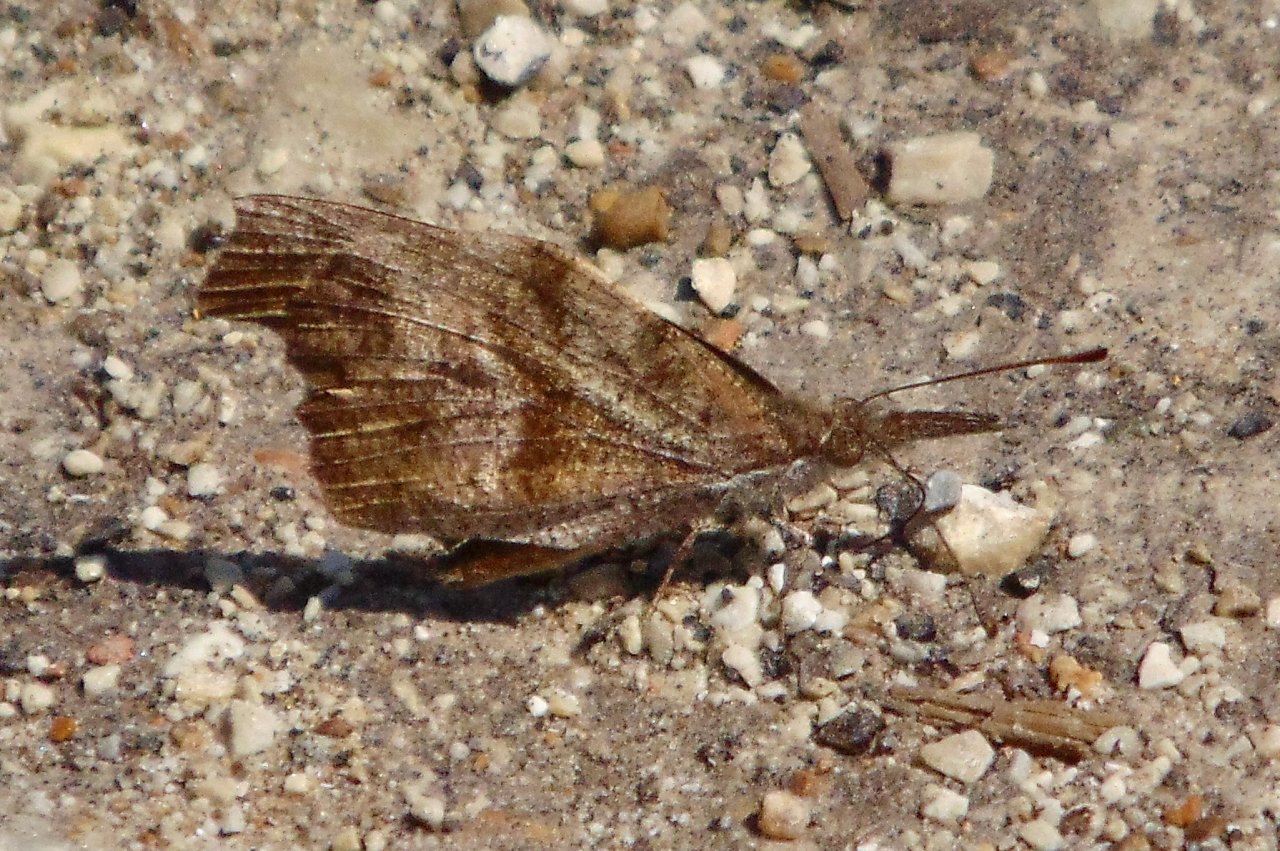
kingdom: Animalia
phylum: Arthropoda
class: Insecta
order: Lepidoptera
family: Nymphalidae
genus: Libytheana
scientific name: Libytheana carinenta
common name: American Snout
